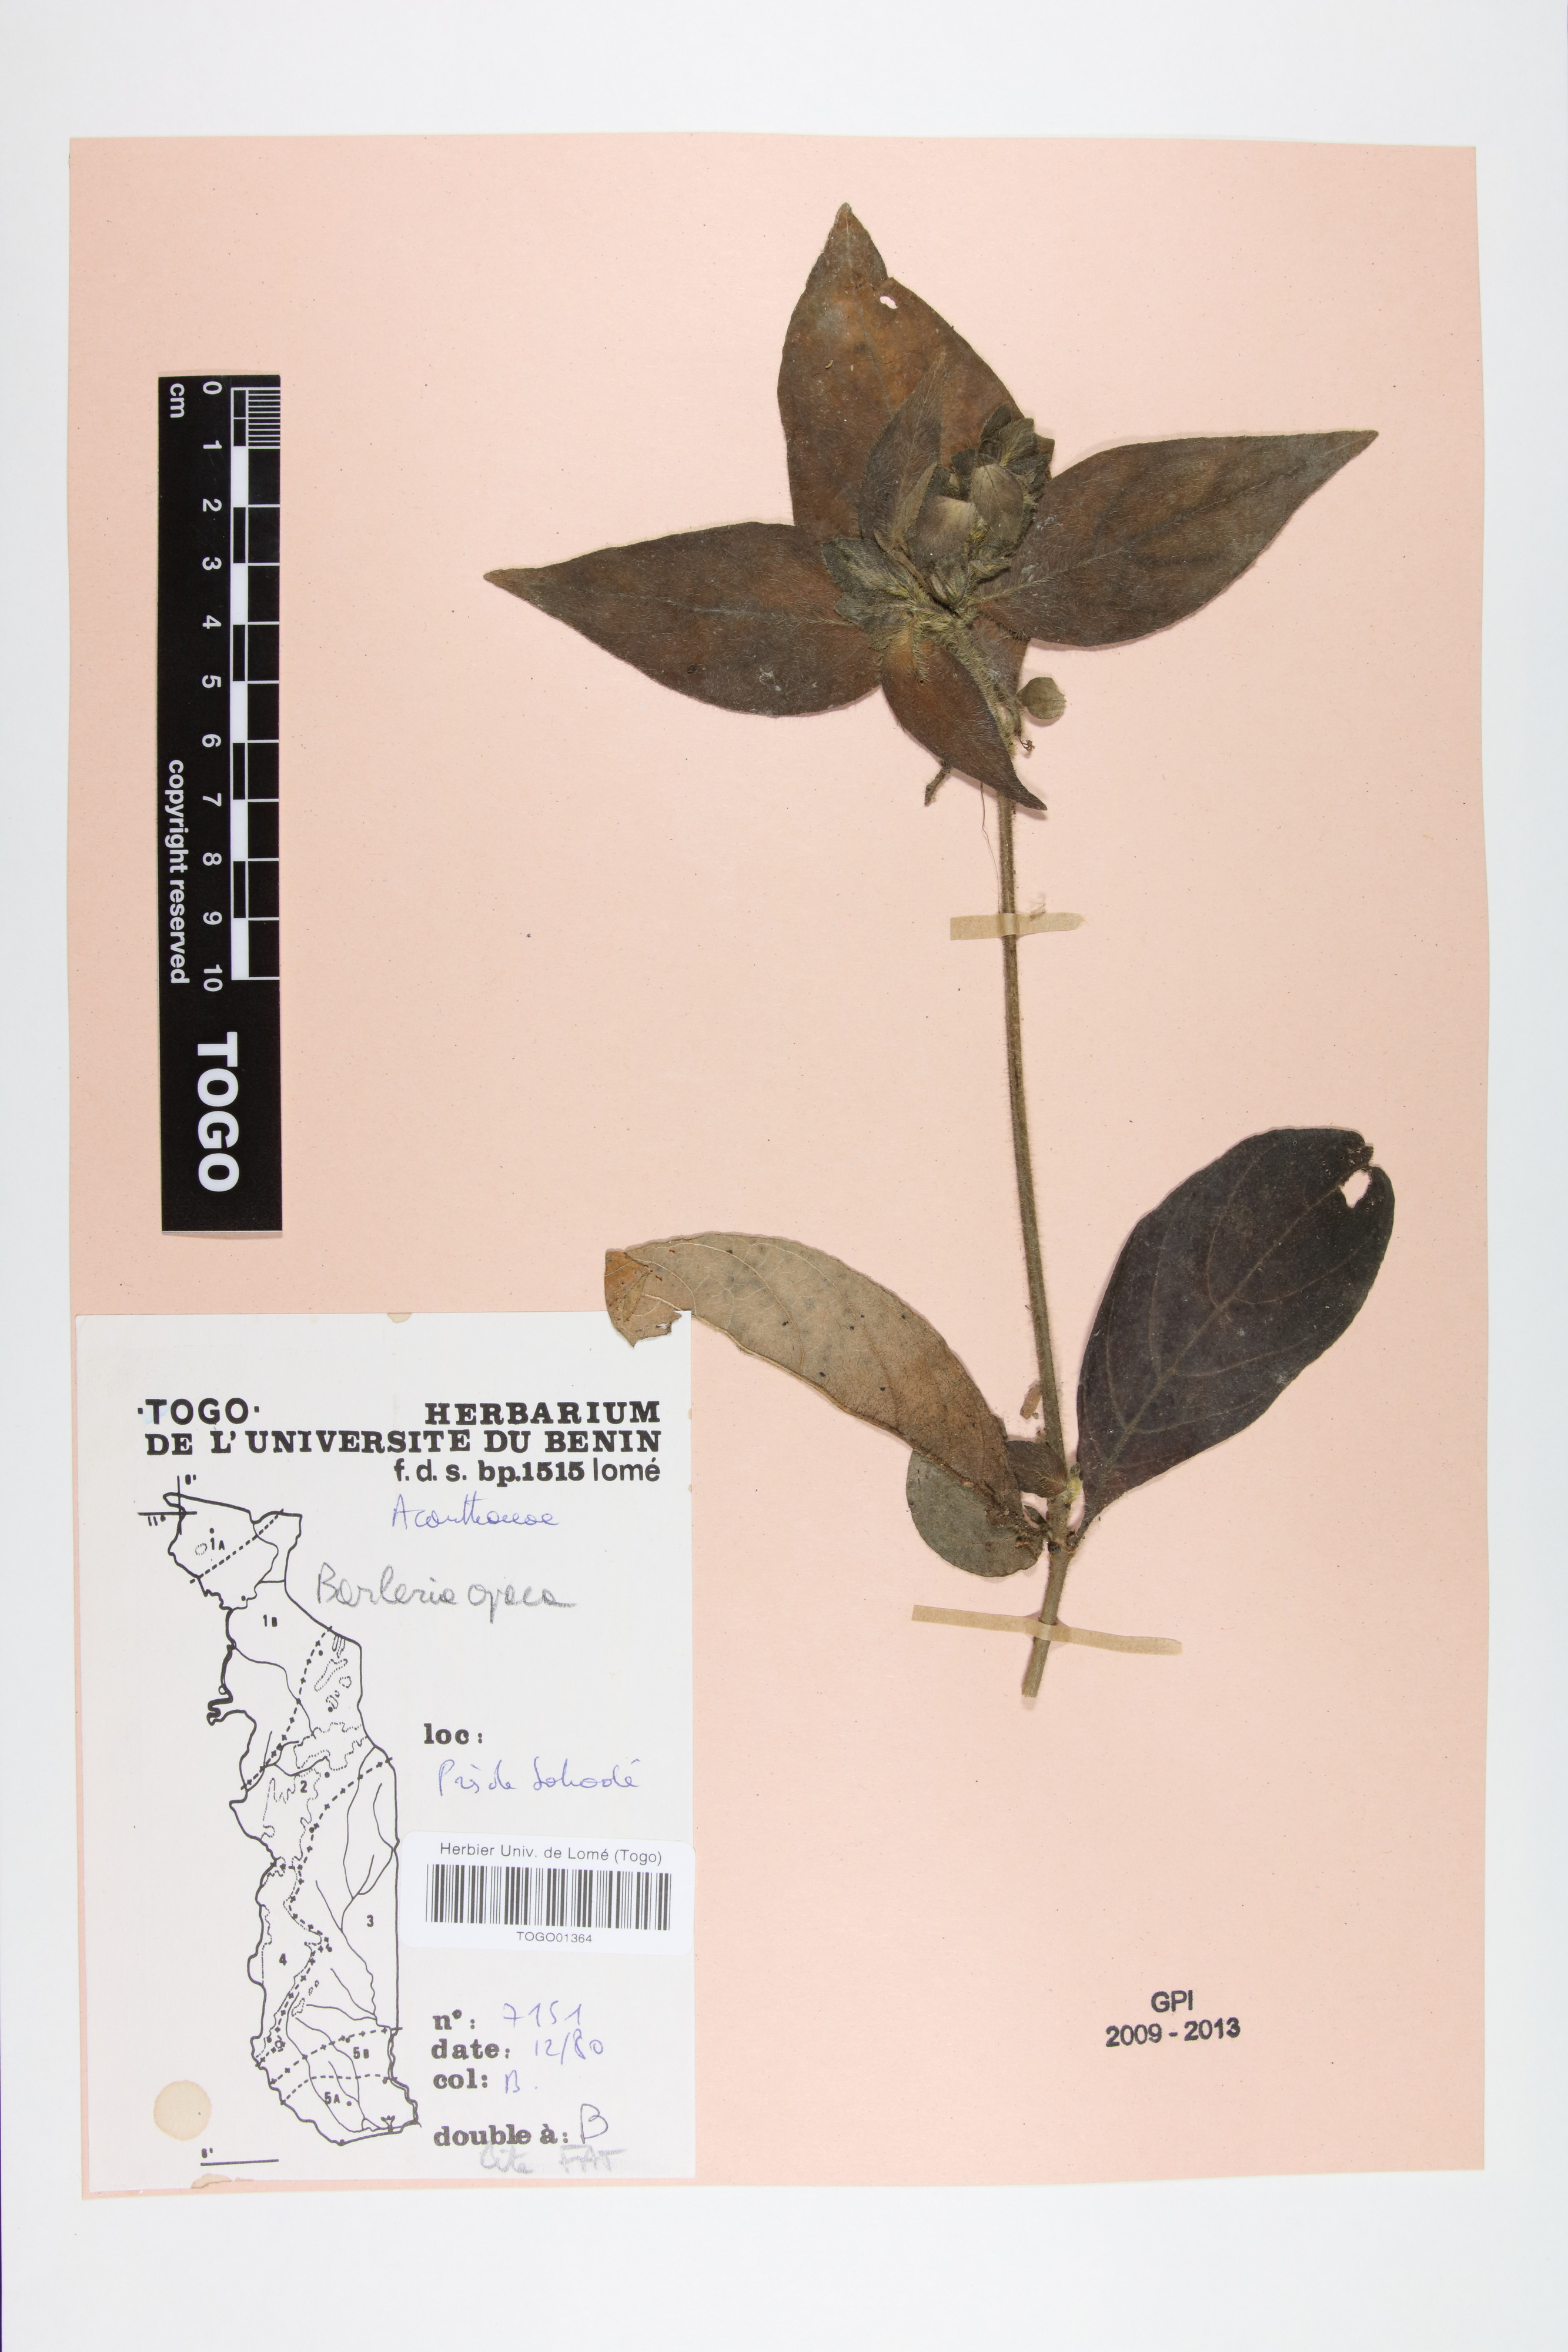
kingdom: Plantae
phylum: Tracheophyta
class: Magnoliopsida
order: Lamiales
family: Acanthaceae
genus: Barleria
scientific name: Barleria opaca
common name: Kwahu
